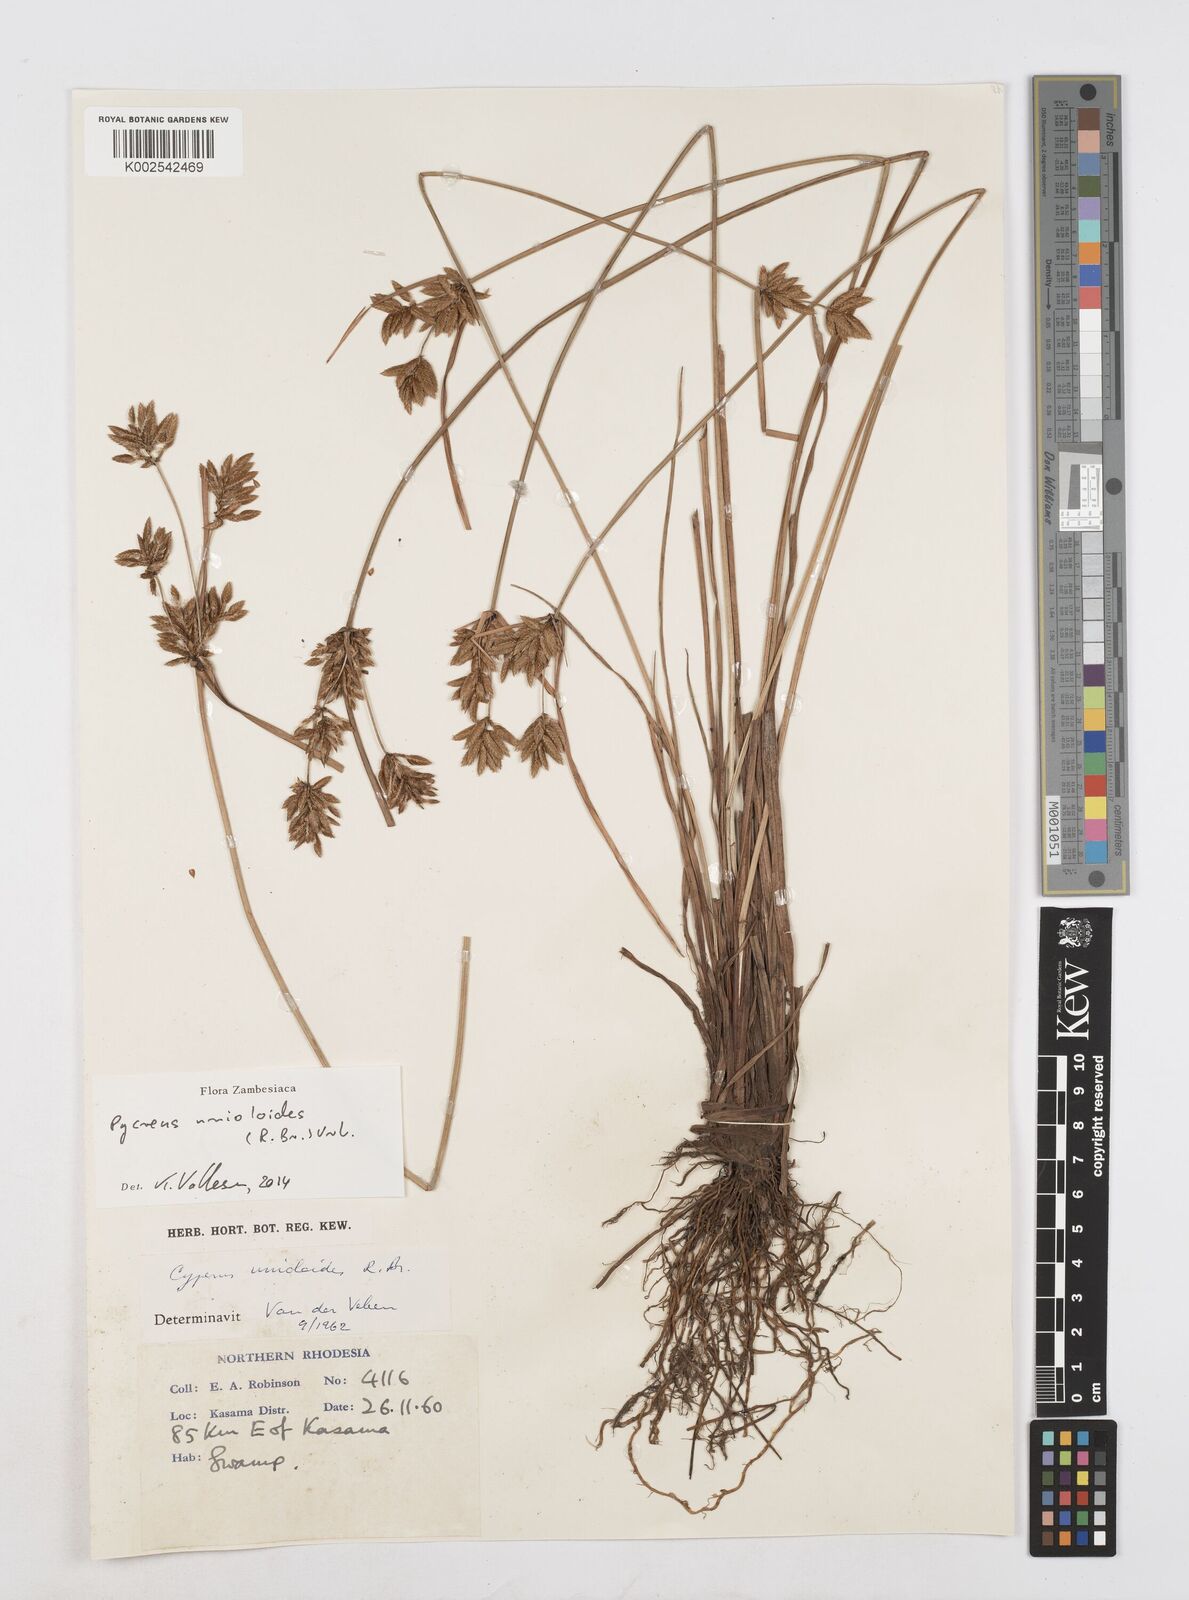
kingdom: Plantae
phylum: Tracheophyta
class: Liliopsida
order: Poales
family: Cyperaceae
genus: Cyperus
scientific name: Cyperus unioloides
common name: Uniola flatsedge
